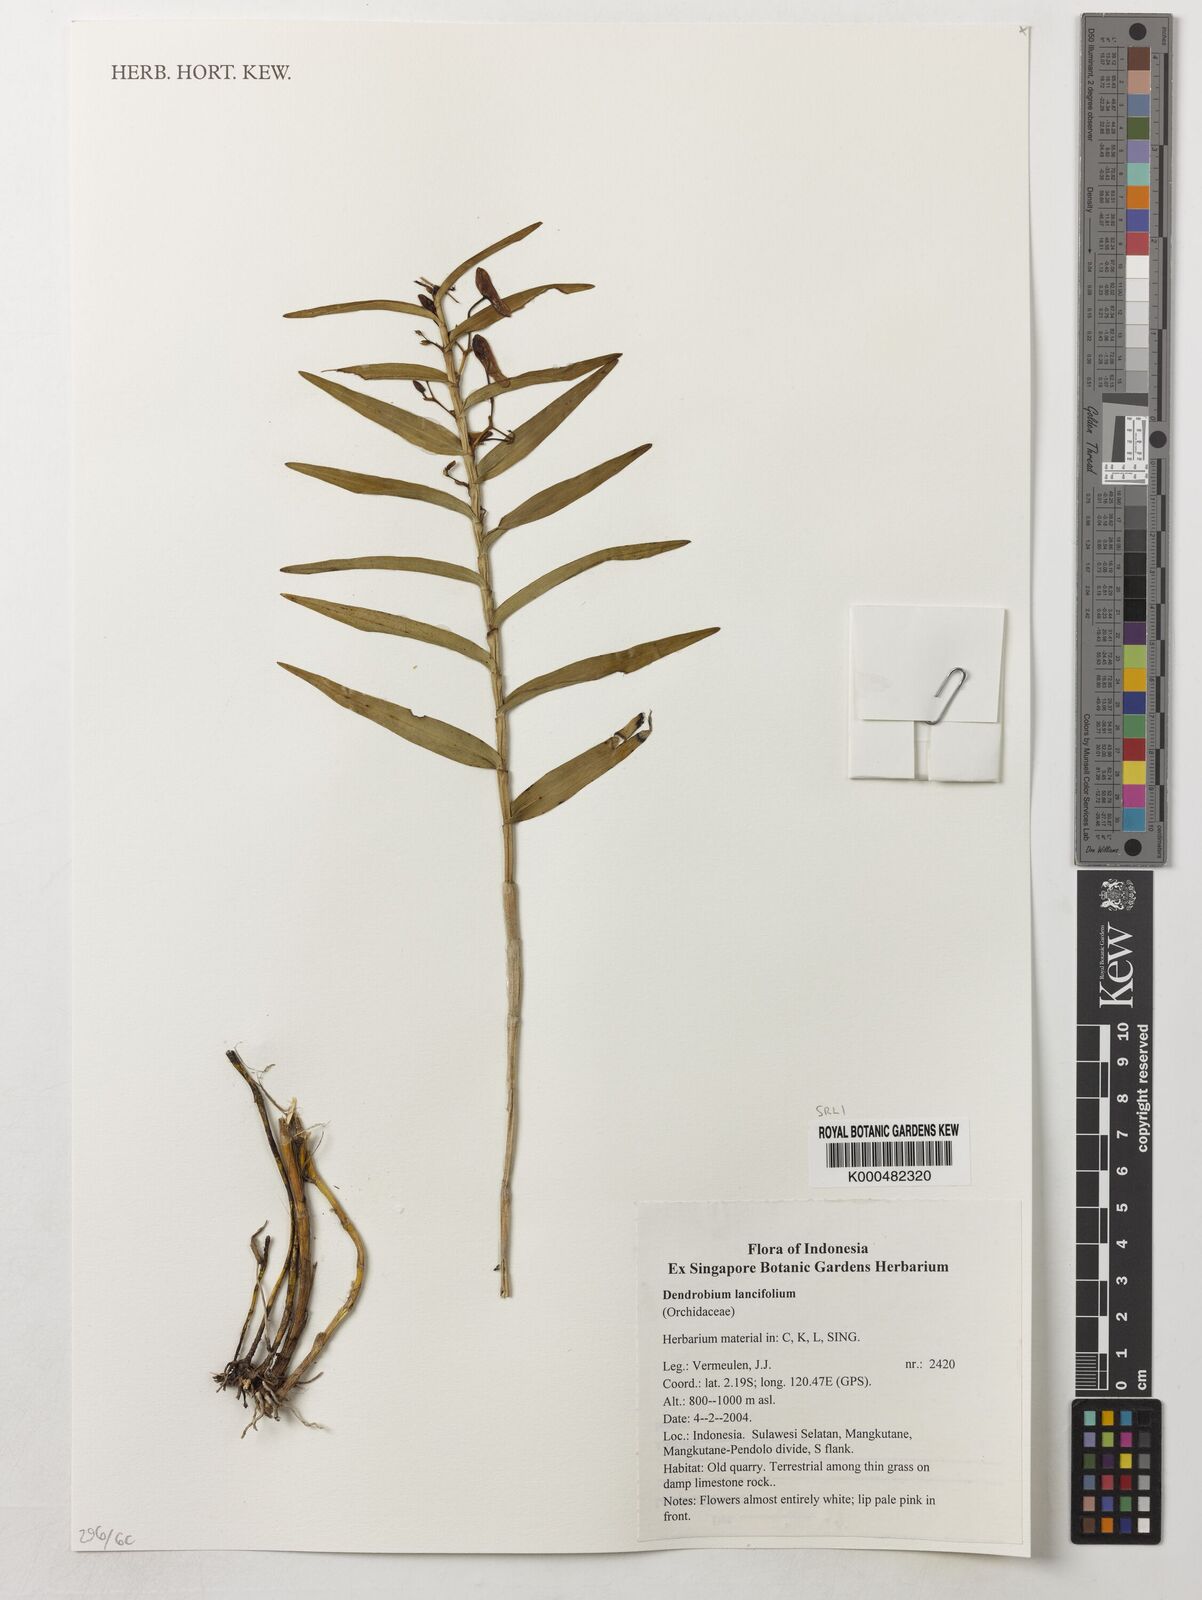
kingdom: Plantae
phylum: Tracheophyta
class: Liliopsida
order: Asparagales
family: Orchidaceae
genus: Dendrobium
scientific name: Dendrobium lanceolatum
